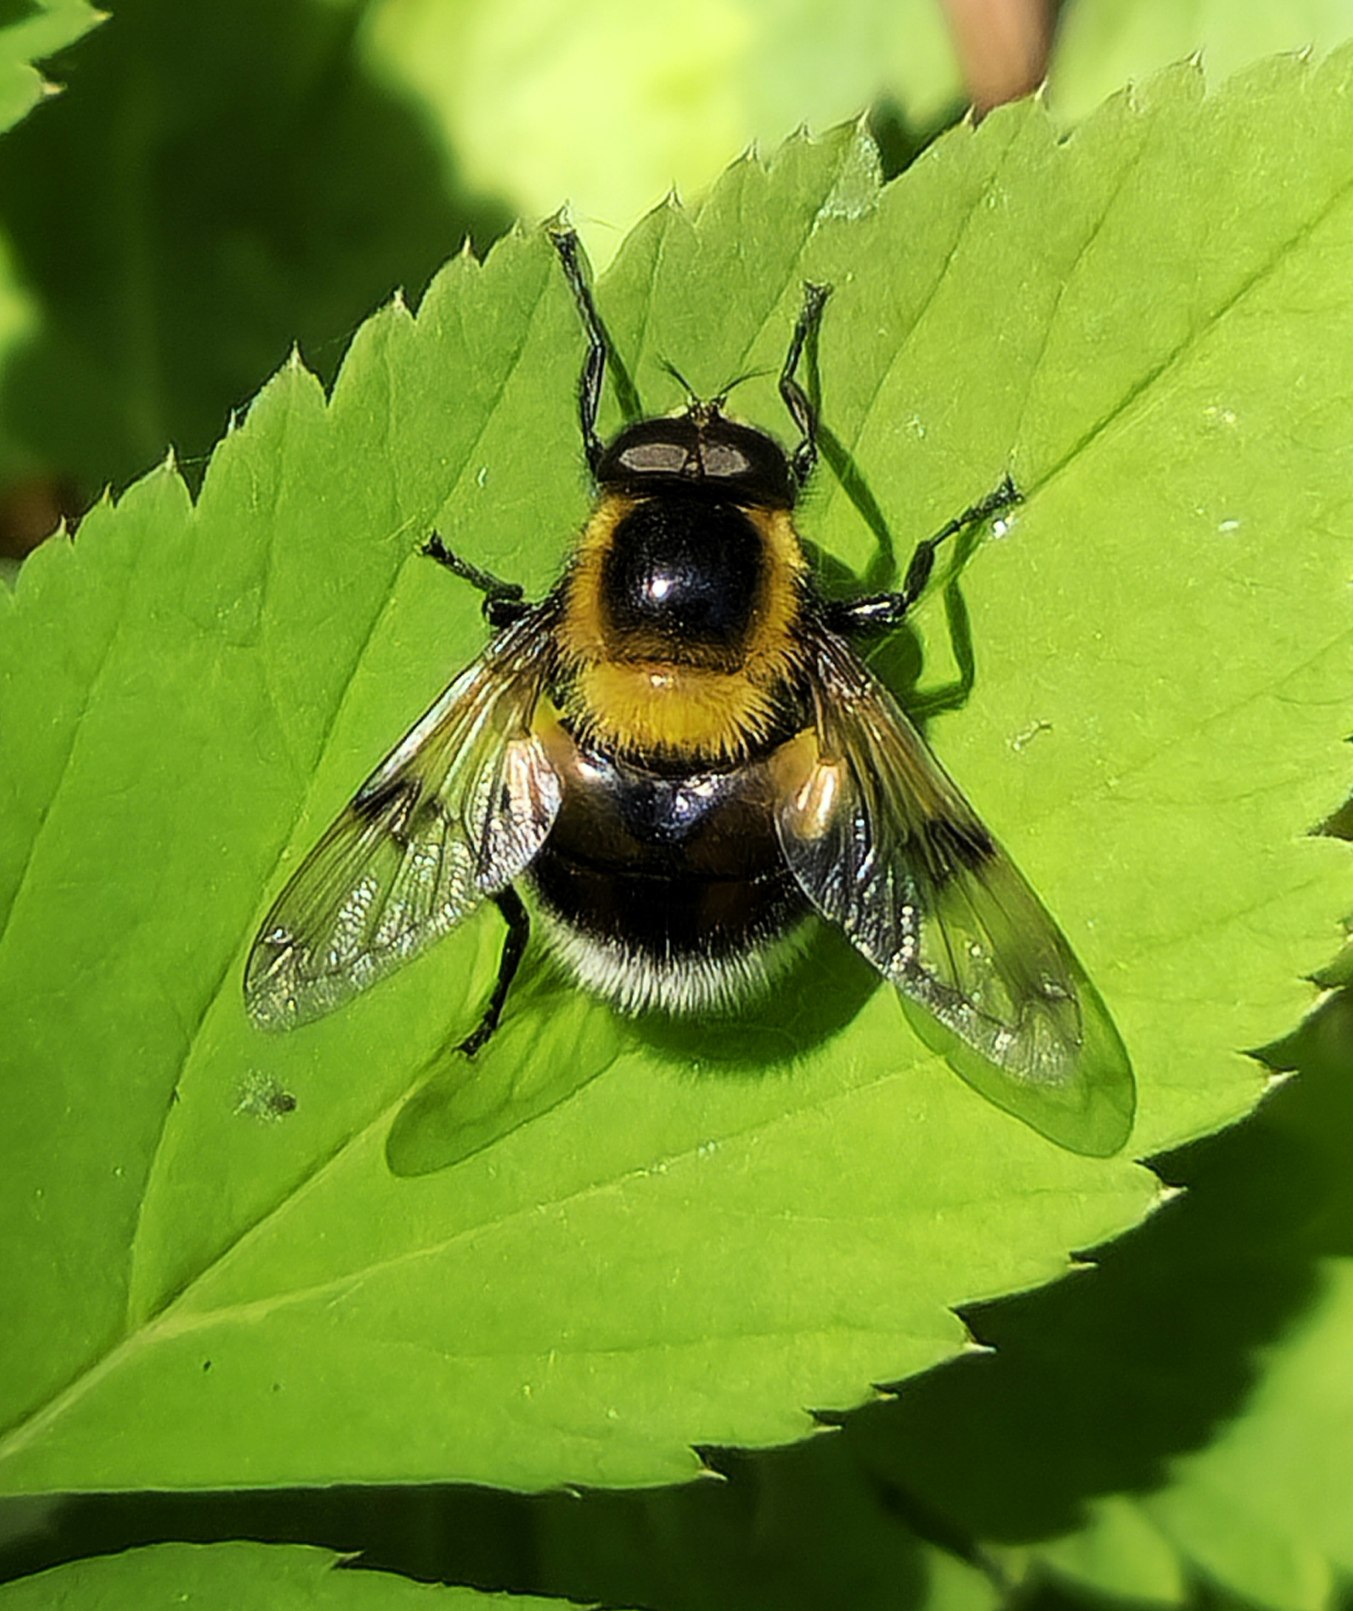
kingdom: Animalia
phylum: Arthropoda
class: Insecta
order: Diptera
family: Syrphidae
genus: Volucella
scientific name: Volucella bombylans
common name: Foranderlig humlesvirreflue
